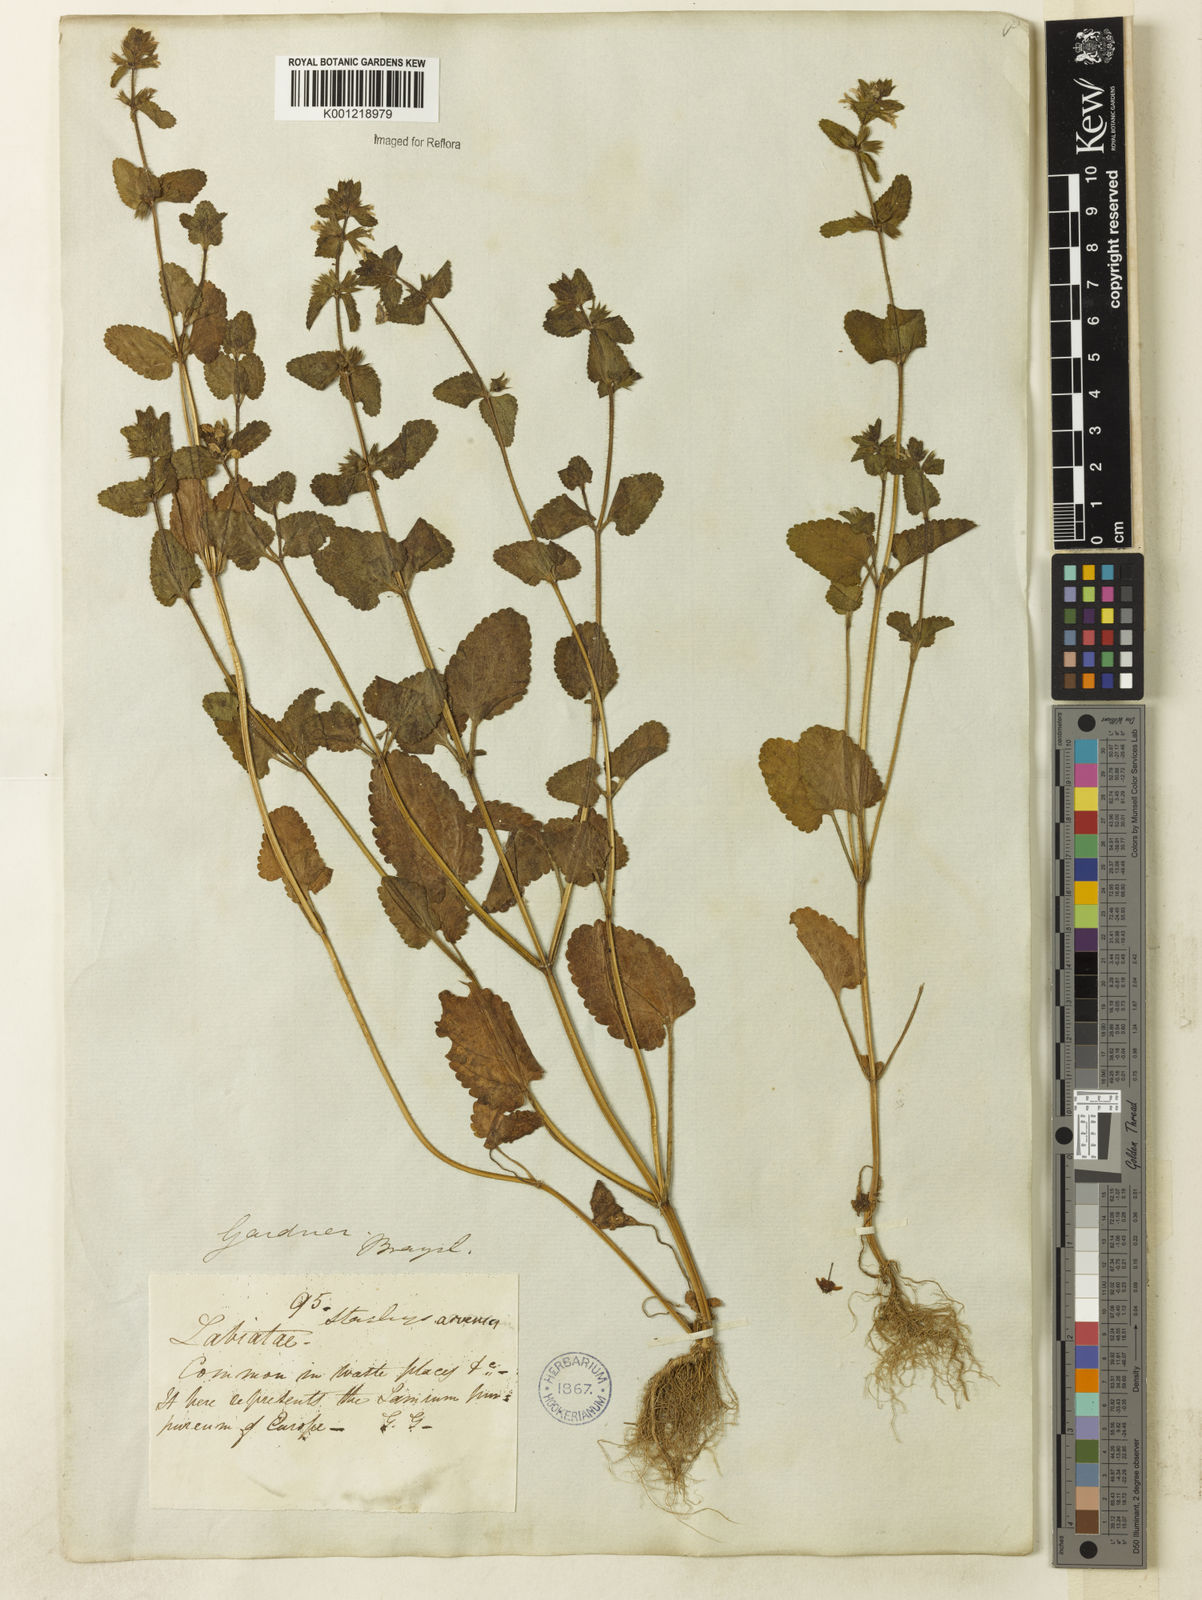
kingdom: Plantae
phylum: Tracheophyta
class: Magnoliopsida
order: Lamiales
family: Lamiaceae
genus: Stachys
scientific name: Stachys arvensis
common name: Field woundwort
